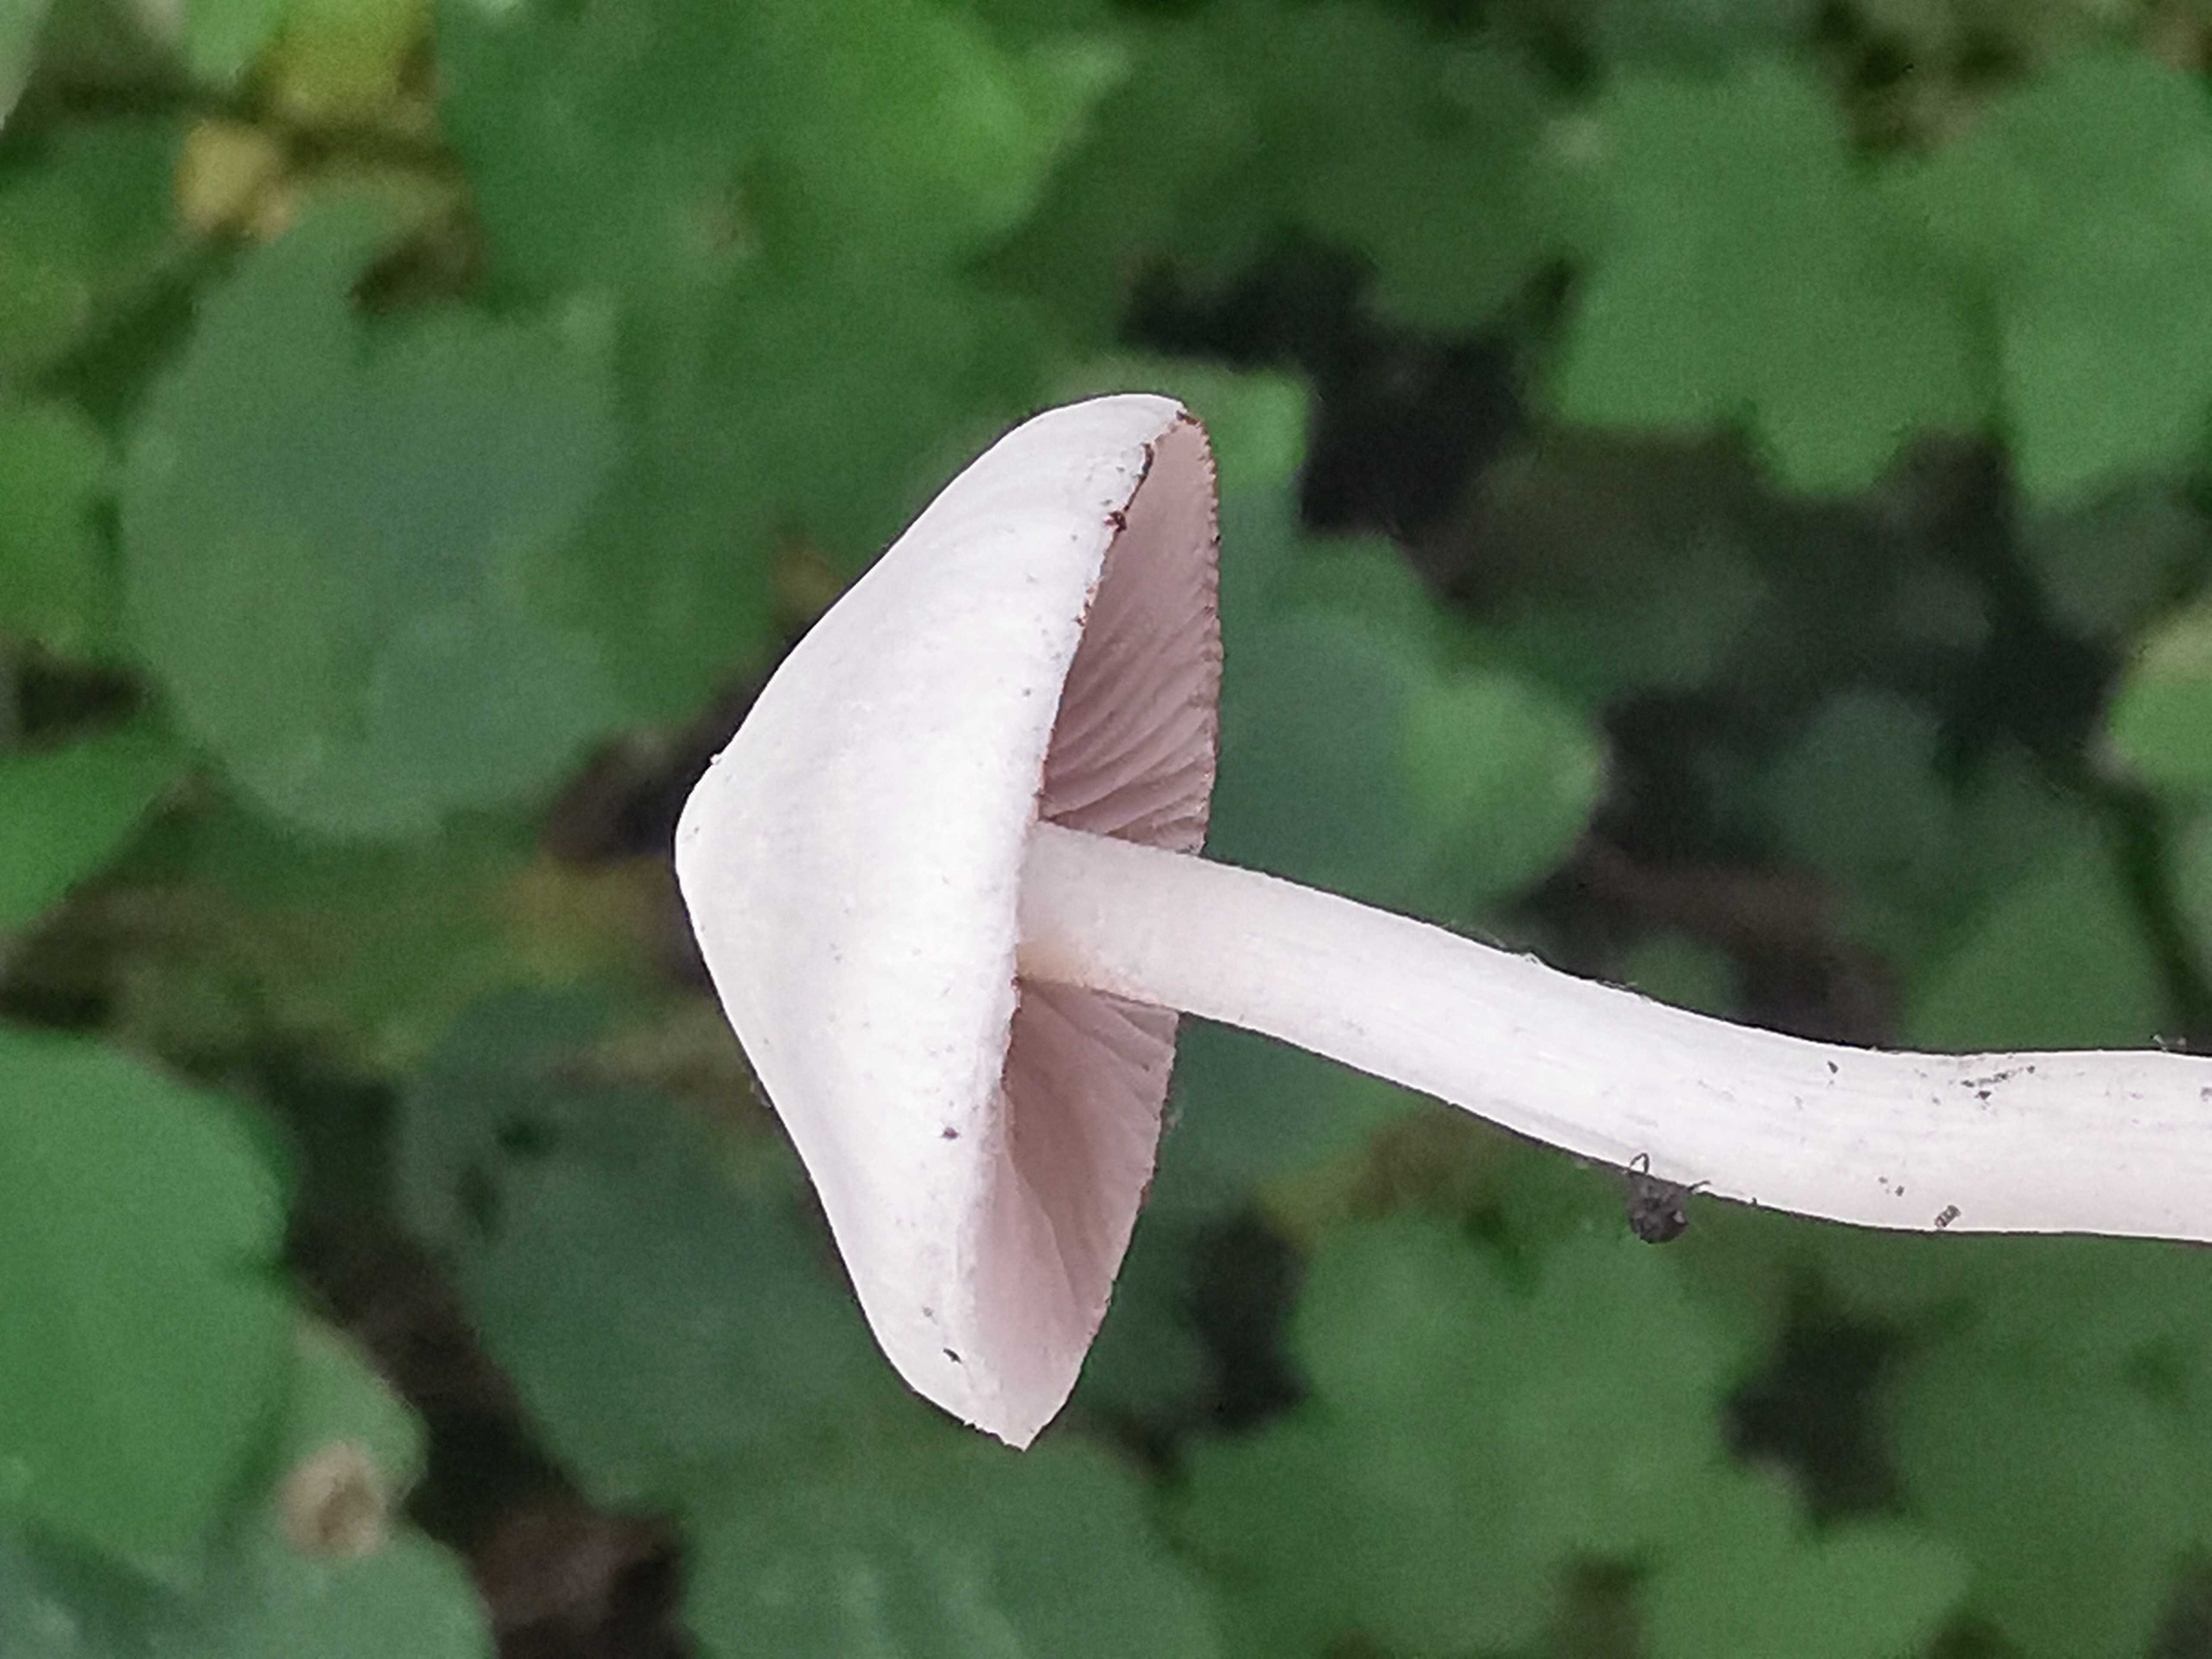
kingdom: Fungi
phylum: Basidiomycota
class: Agaricomycetes
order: Agaricales
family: Inocybaceae
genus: Inocybe
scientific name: Inocybe
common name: almindelig trævlhat
